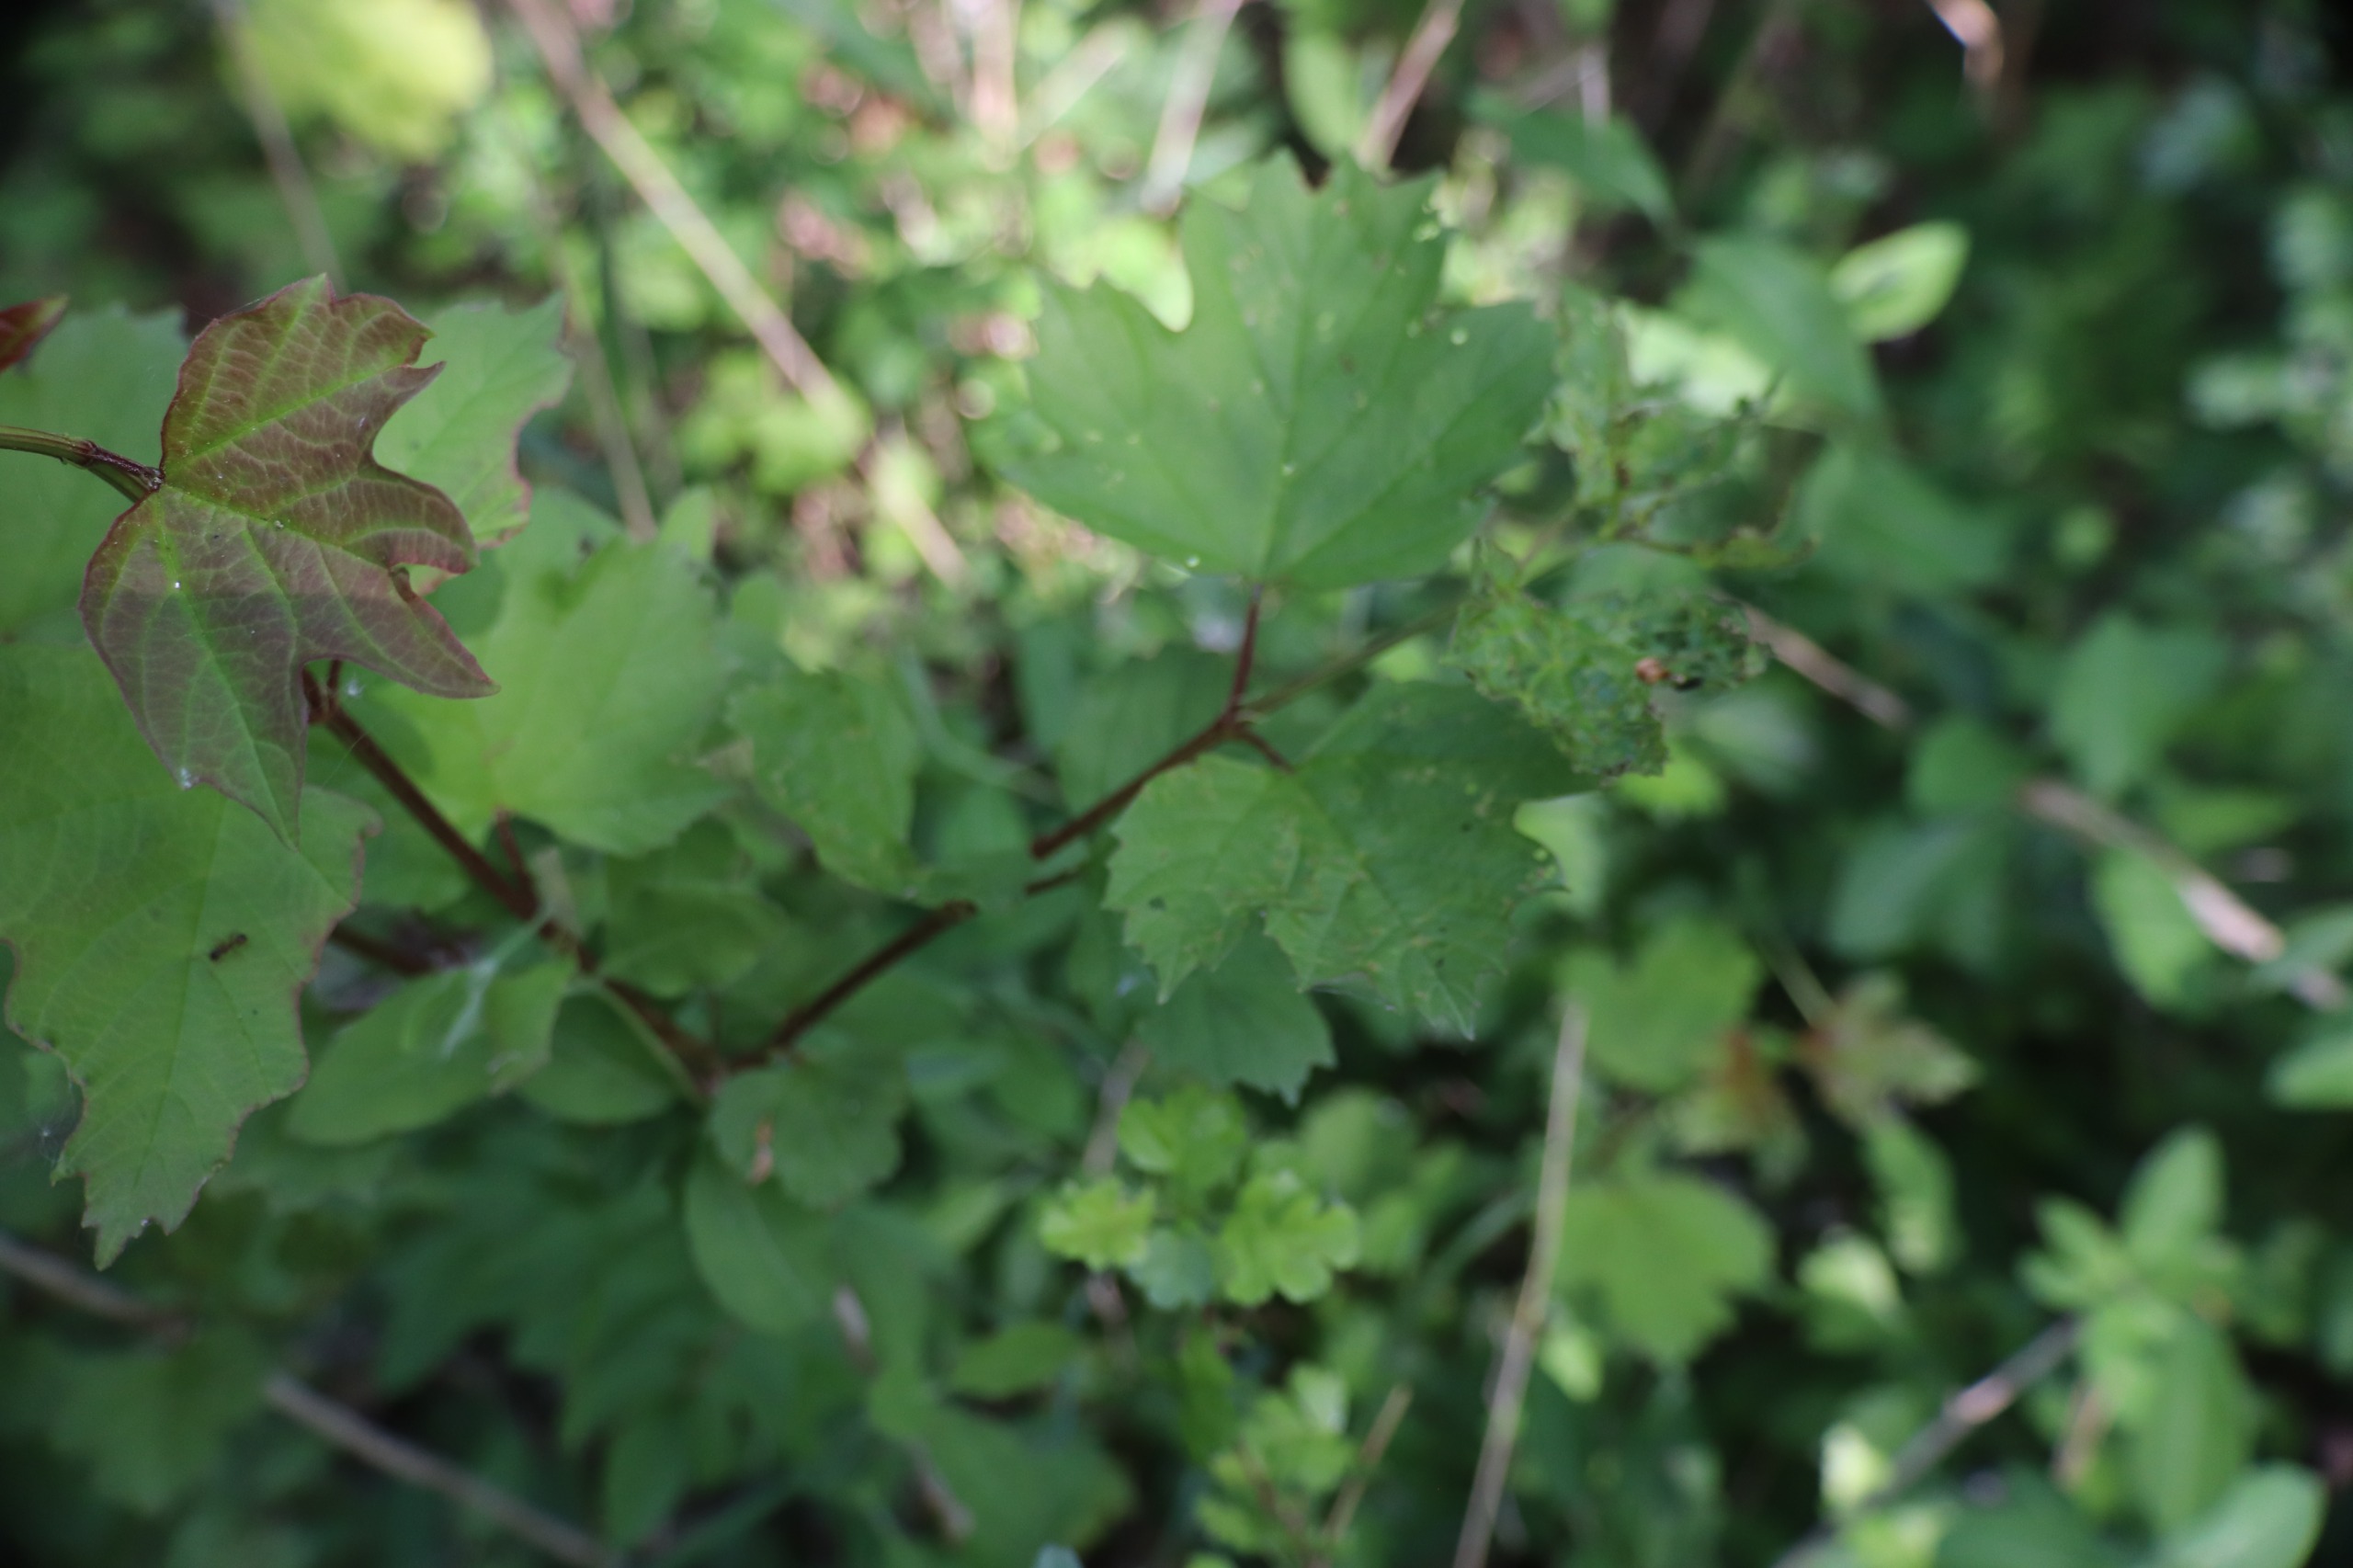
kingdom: Plantae
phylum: Tracheophyta
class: Magnoliopsida
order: Dipsacales
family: Viburnaceae
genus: Viburnum
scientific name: Viburnum opulus
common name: Kvalkved
